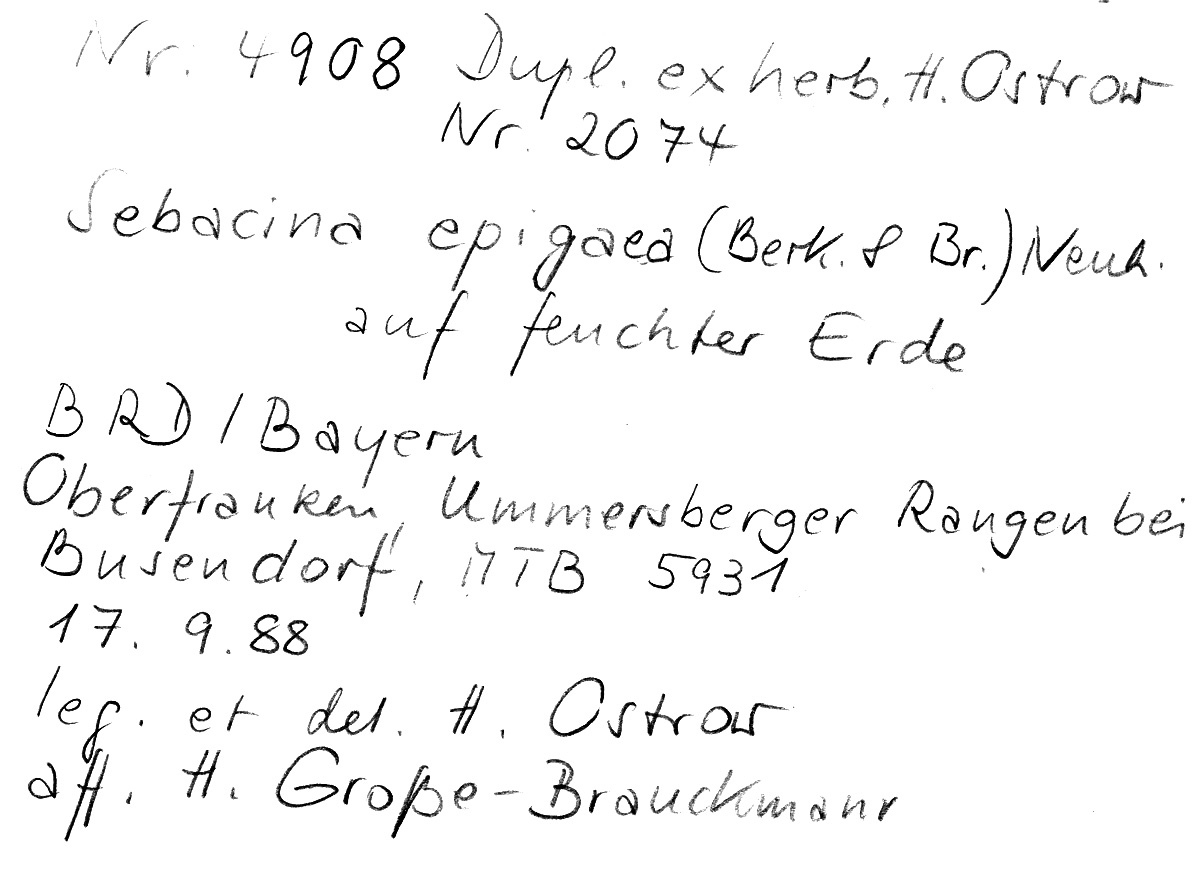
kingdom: Fungi
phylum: Basidiomycota
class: Agaricomycetes
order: Sebacinales
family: Sebacinaceae
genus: Sebacina
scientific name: Sebacina epigaea
